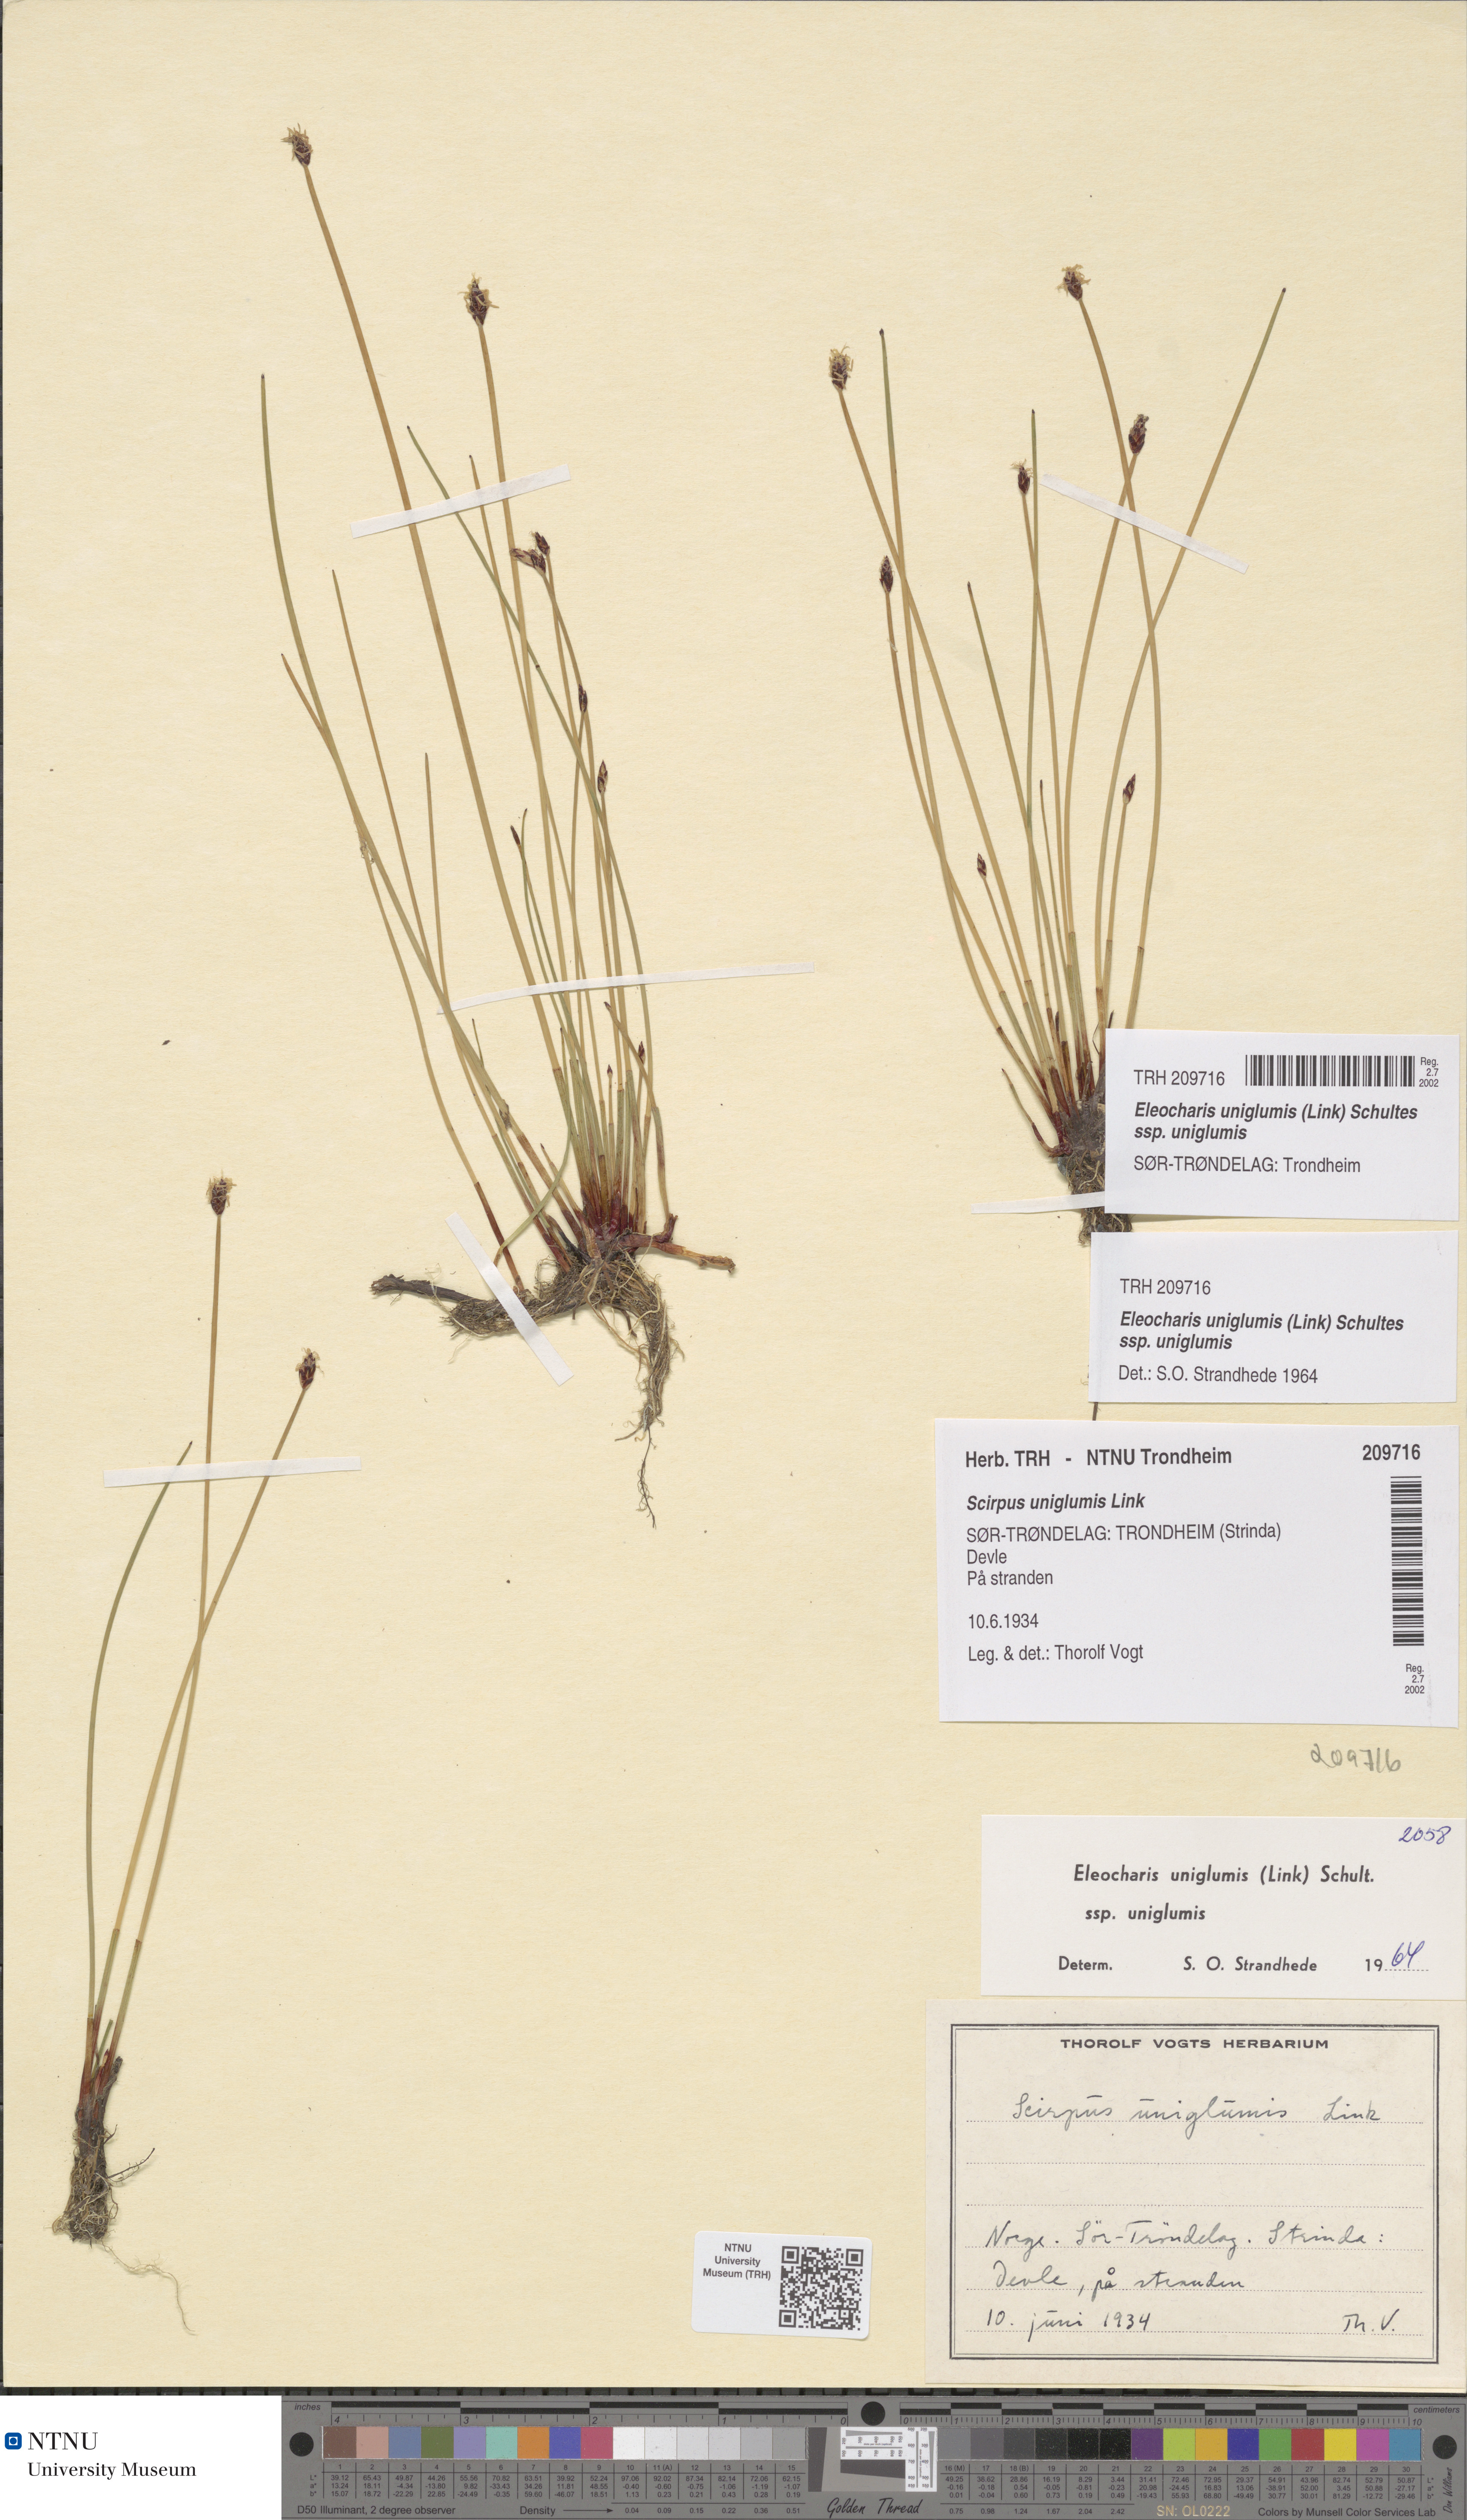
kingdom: Plantae
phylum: Tracheophyta
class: Liliopsida
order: Poales
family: Cyperaceae
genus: Eleocharis
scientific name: Eleocharis uniglumis
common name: Slender spike-rush
